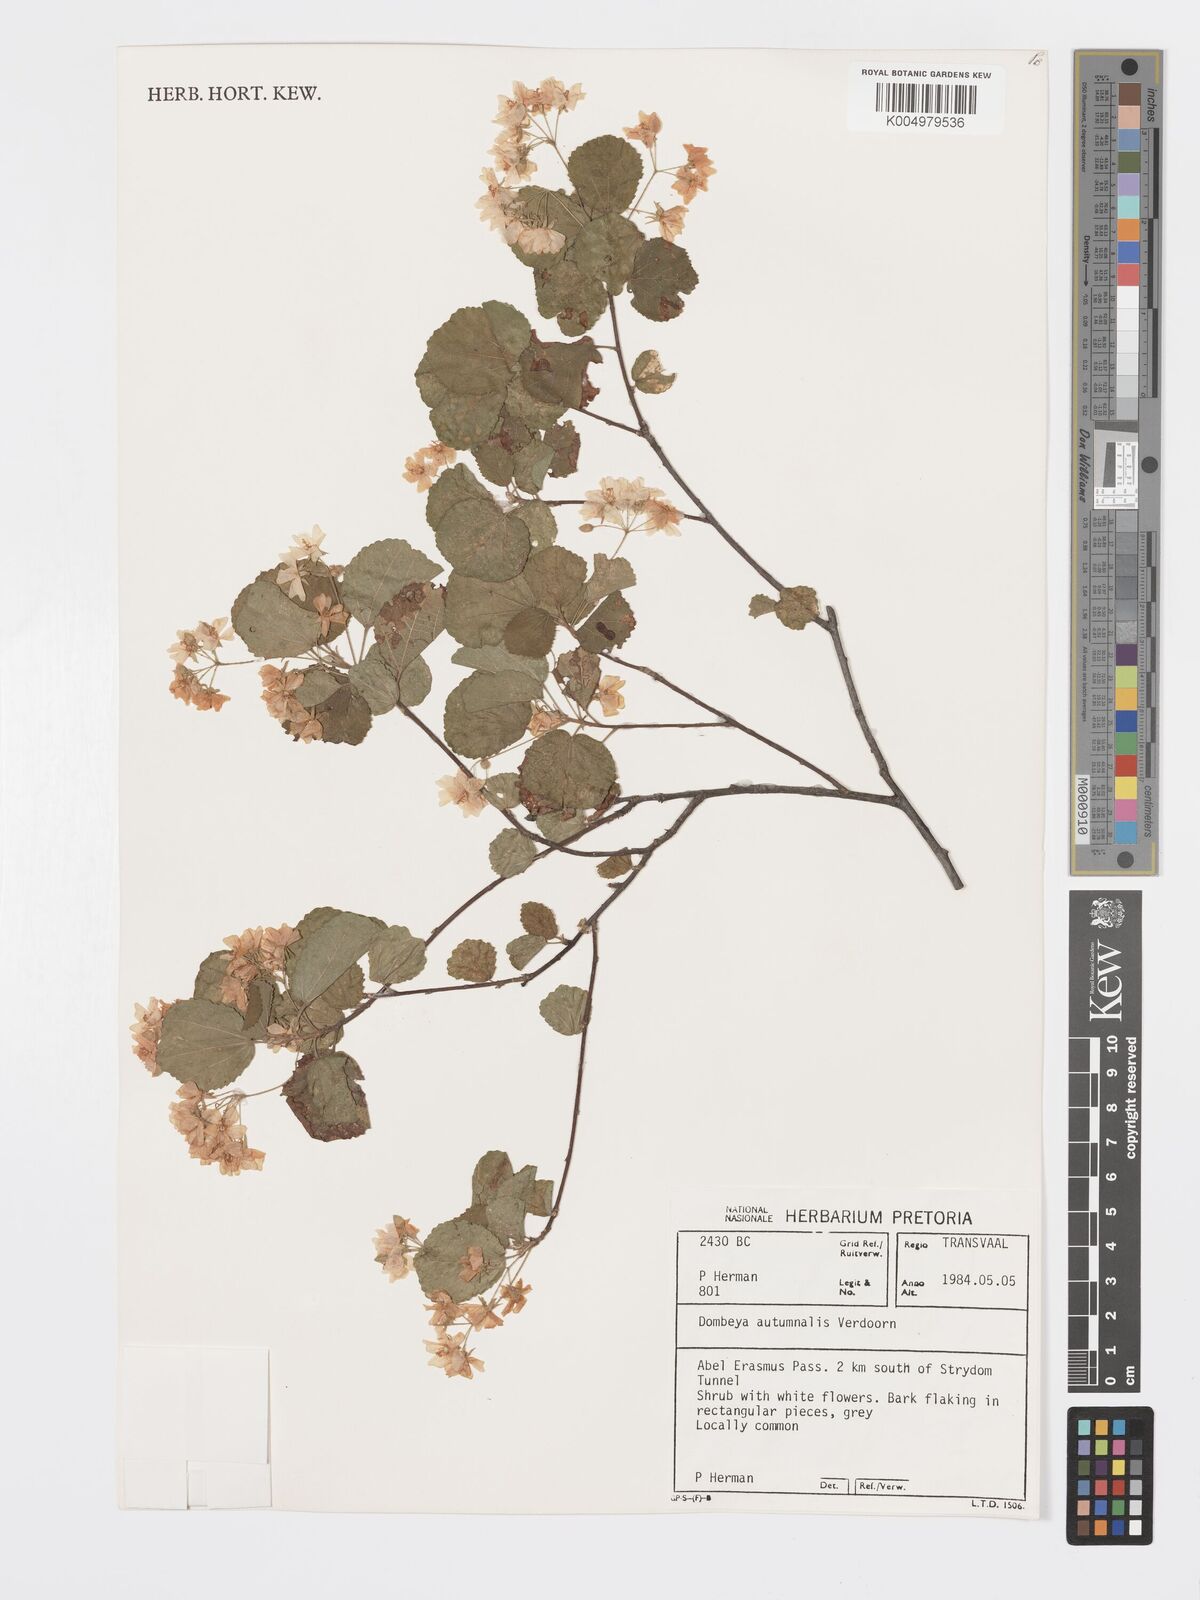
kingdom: Plantae
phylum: Tracheophyta
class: Magnoliopsida
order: Malvales
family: Malvaceae
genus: Dombeya
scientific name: Dombeya autumnalis
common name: Rock dombeya
